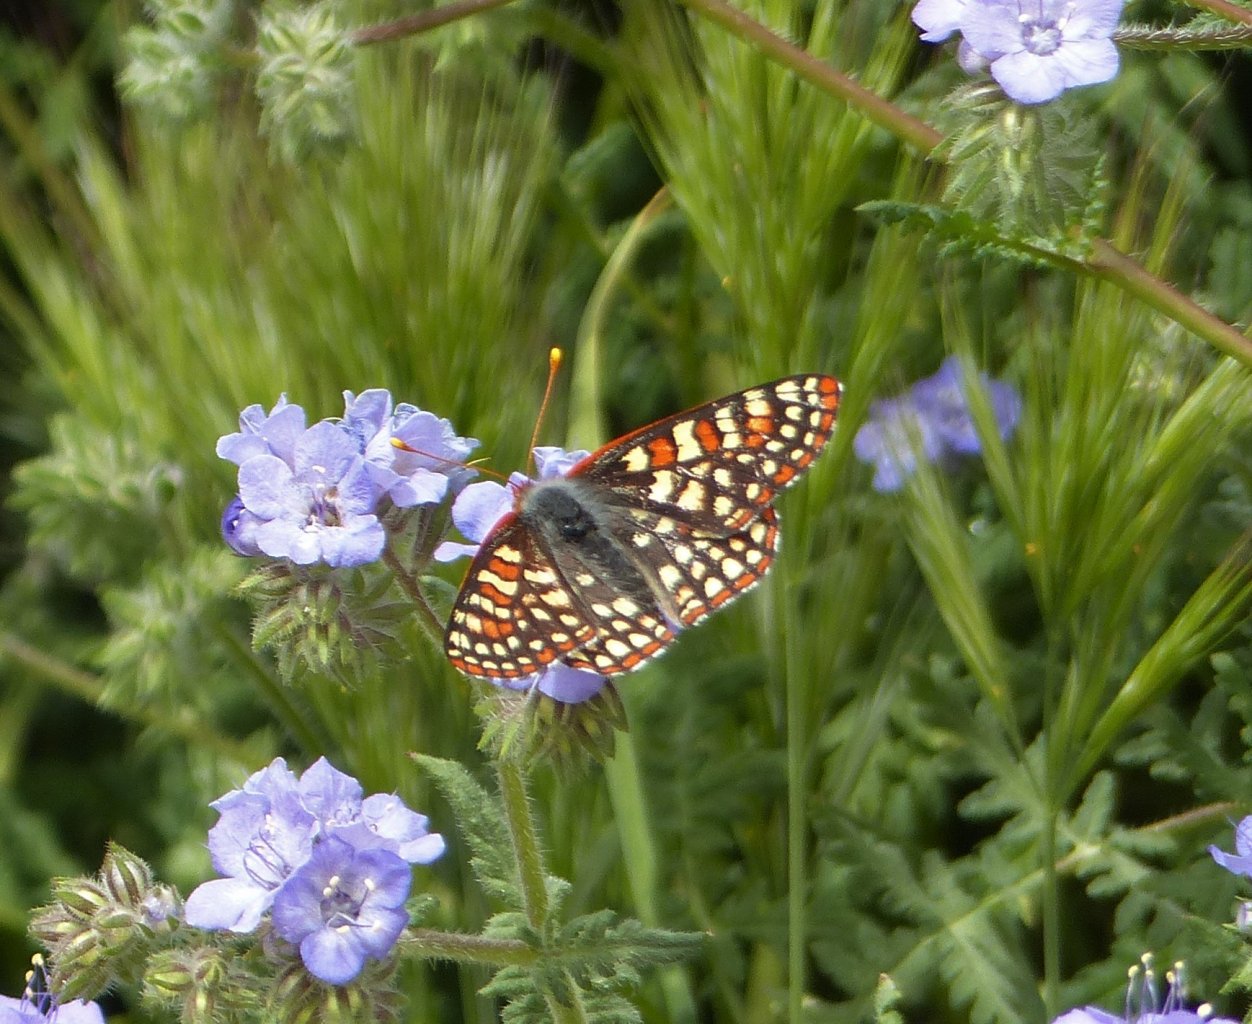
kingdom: Animalia
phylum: Arthropoda
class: Insecta
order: Lepidoptera
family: Nymphalidae
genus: Occidryas
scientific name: Occidryas chalcedona
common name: Chalcedon Checkerspot
